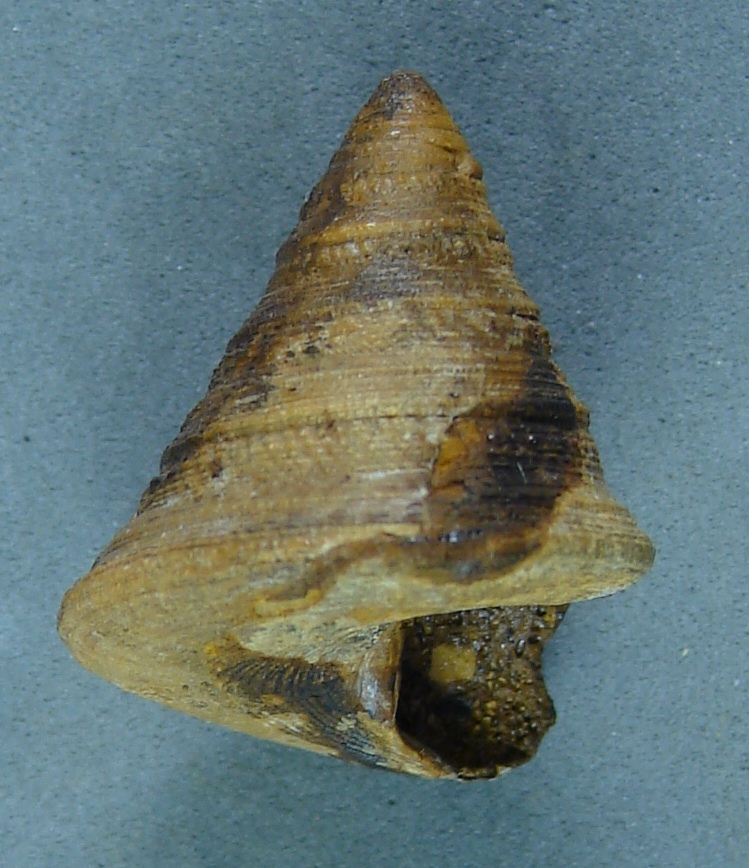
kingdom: Animalia
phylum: Mollusca
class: Gastropoda
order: Pleurotomariida
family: Pleurotomariidae
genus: Pyrgotrochus
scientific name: Pyrgotrochus elongatus
